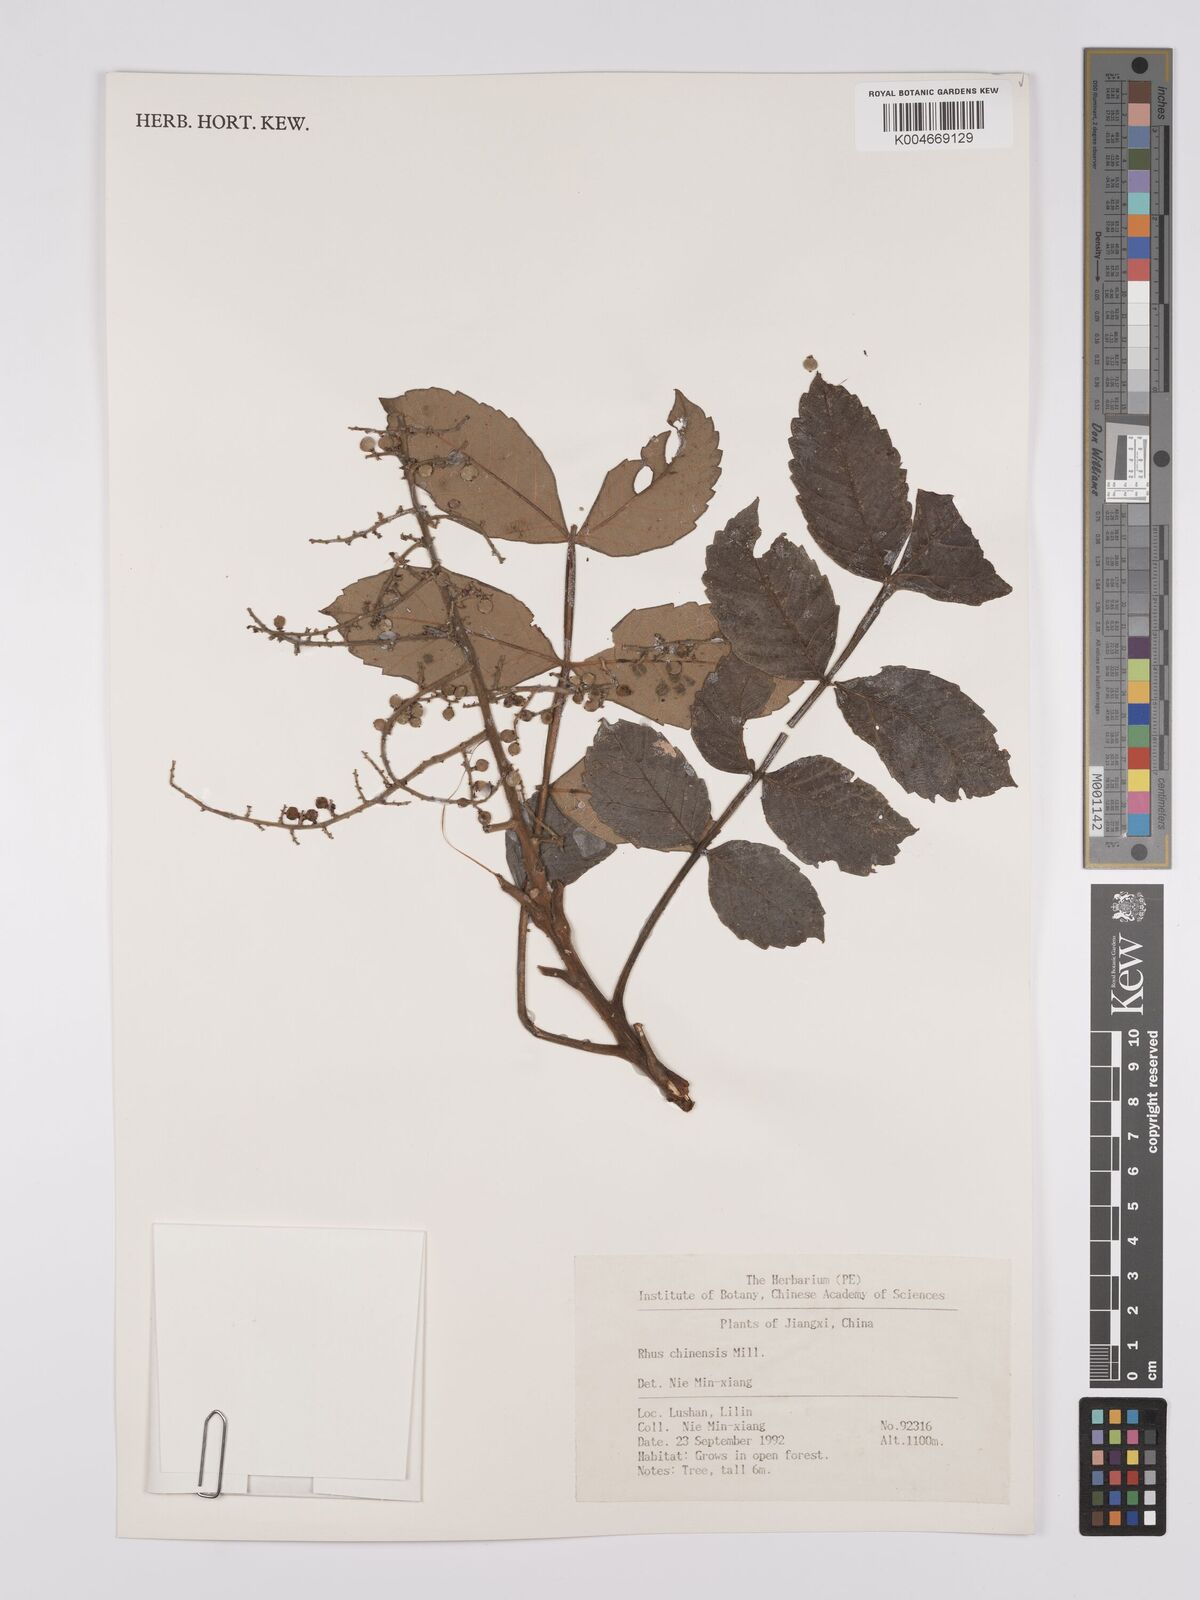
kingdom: Plantae
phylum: Tracheophyta
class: Magnoliopsida
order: Sapindales
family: Anacardiaceae
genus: Rhus
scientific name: Rhus chinensis
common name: Chinese gall
